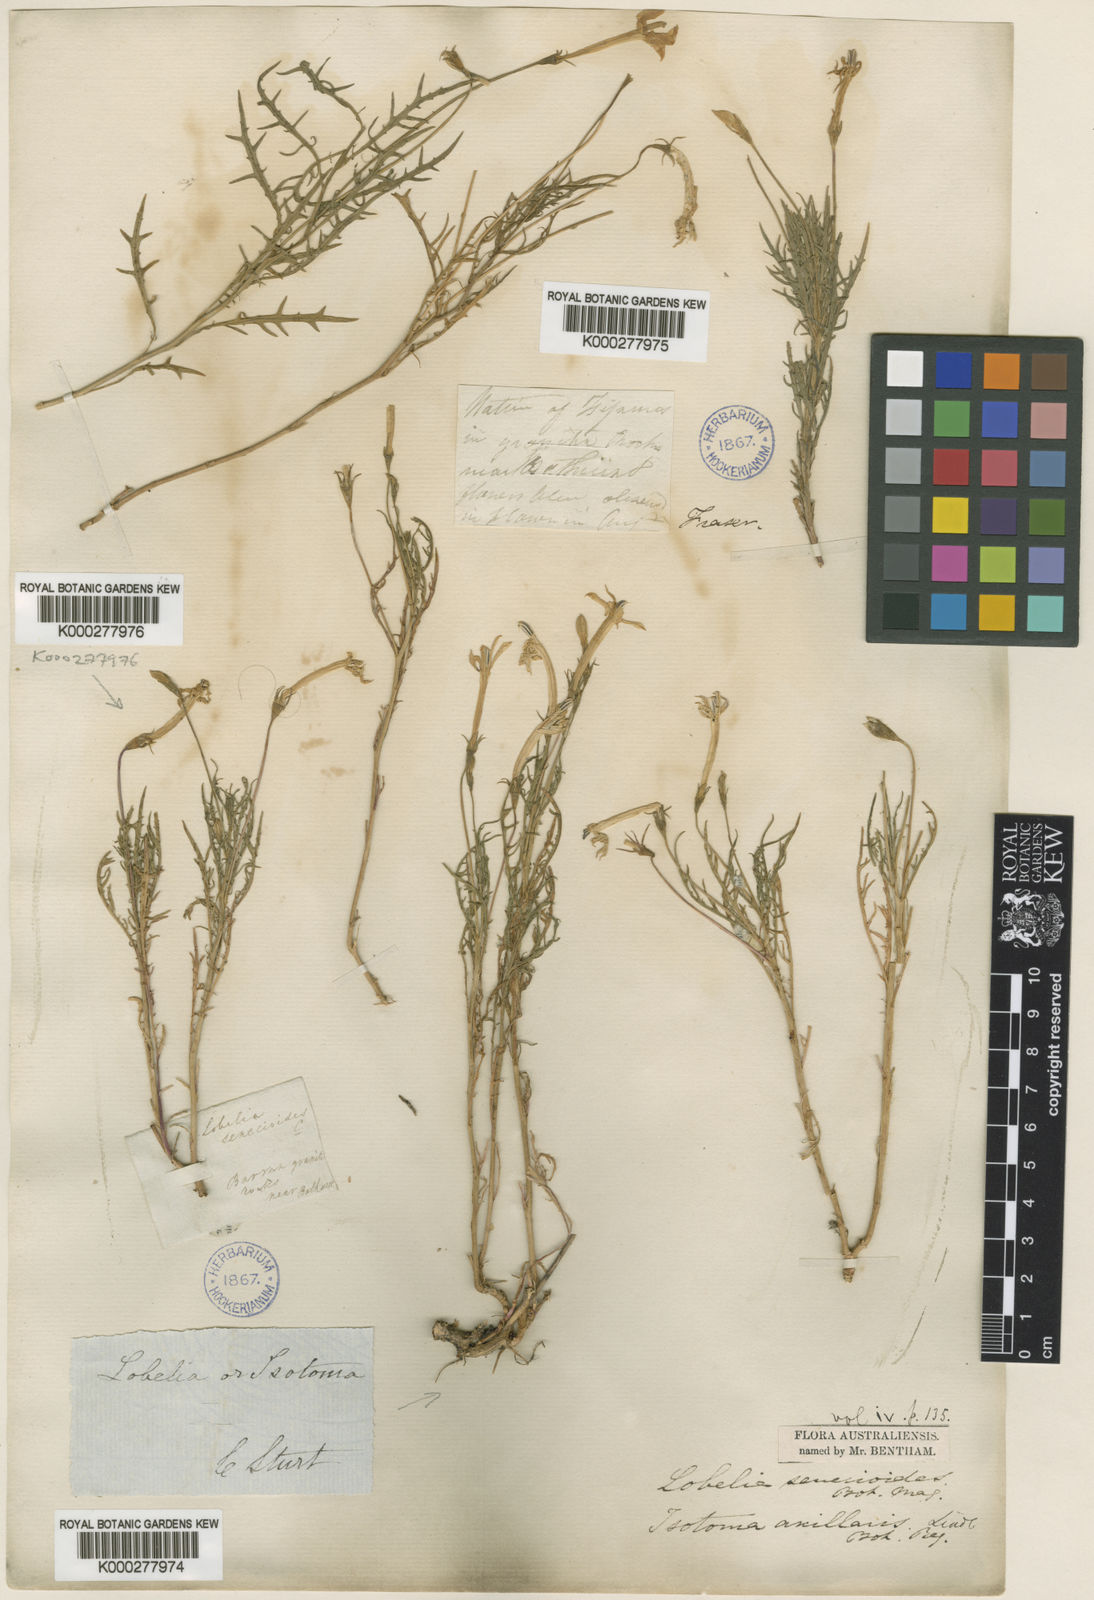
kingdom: Plantae
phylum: Tracheophyta
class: Magnoliopsida
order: Asterales
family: Campanulaceae
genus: Lithotoma
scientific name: Lithotoma axillaris
